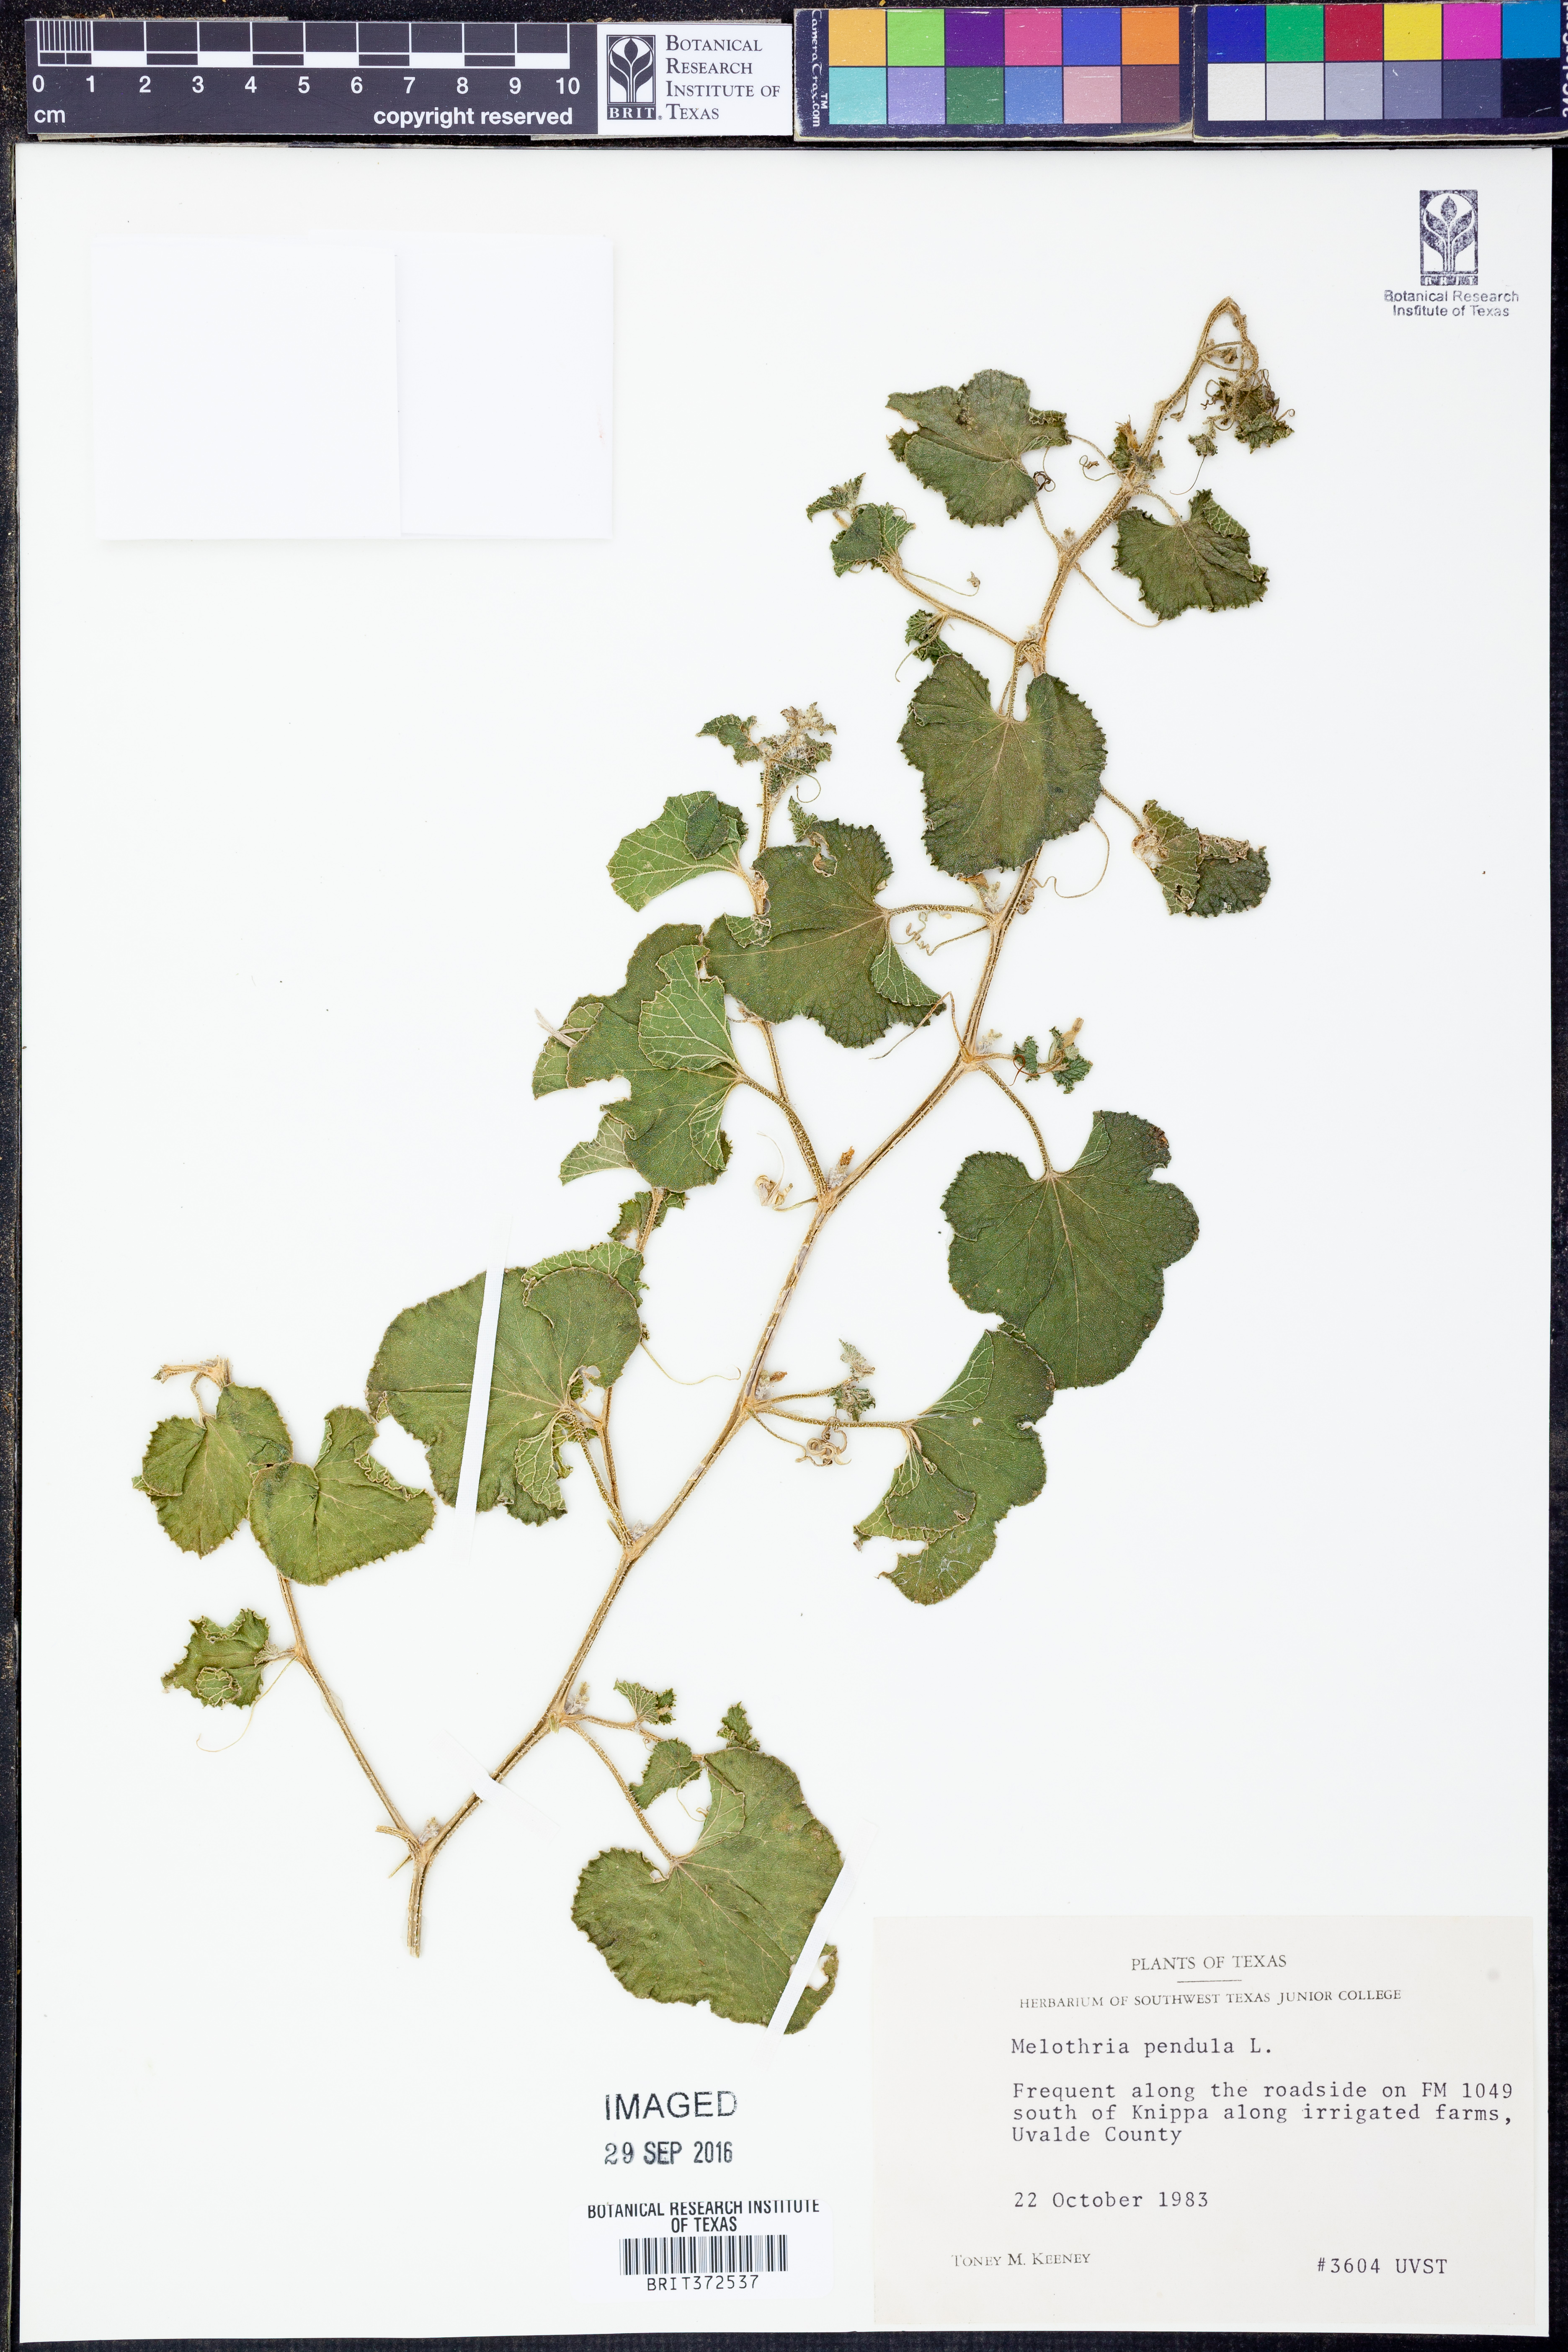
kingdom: Plantae
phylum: Tracheophyta
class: Magnoliopsida
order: Cucurbitales
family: Cucurbitaceae
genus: Melothria
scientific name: Melothria pendula
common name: Creeping-cucumber
